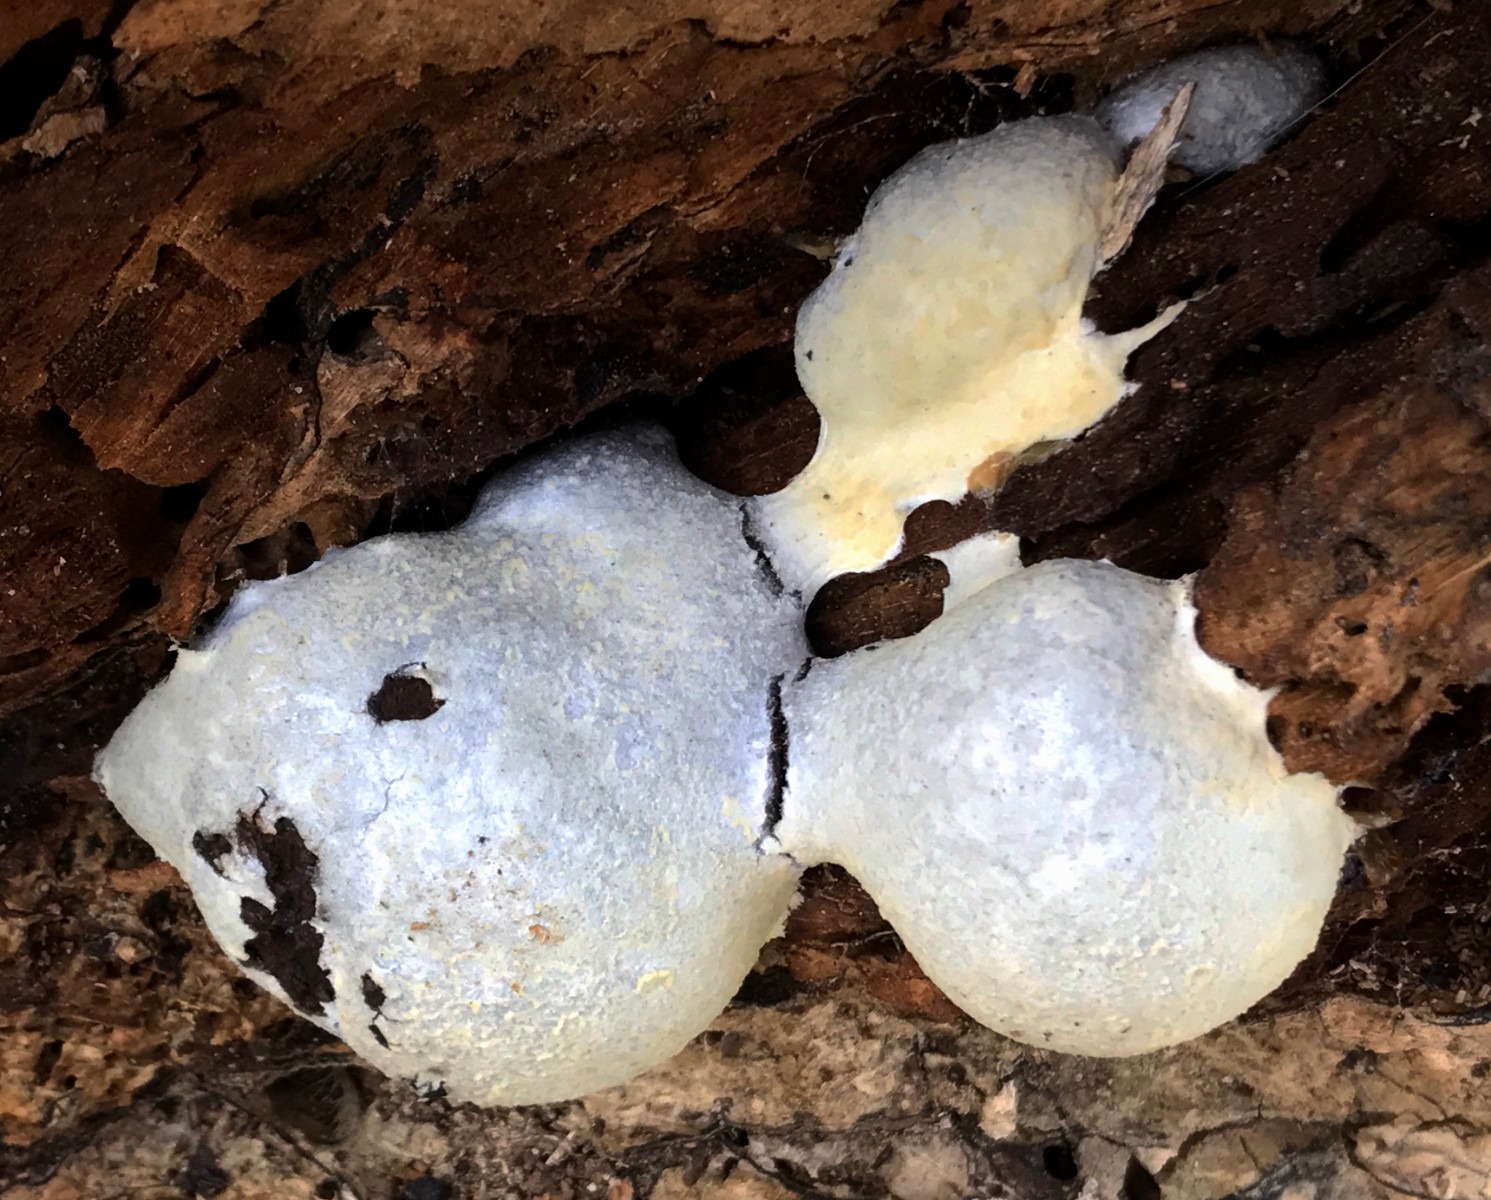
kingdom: Protozoa
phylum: Mycetozoa
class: Myxomycetes
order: Cribrariales
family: Tubiferaceae
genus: Reticularia
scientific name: Reticularia lycoperdon
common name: skinnende støvpude
